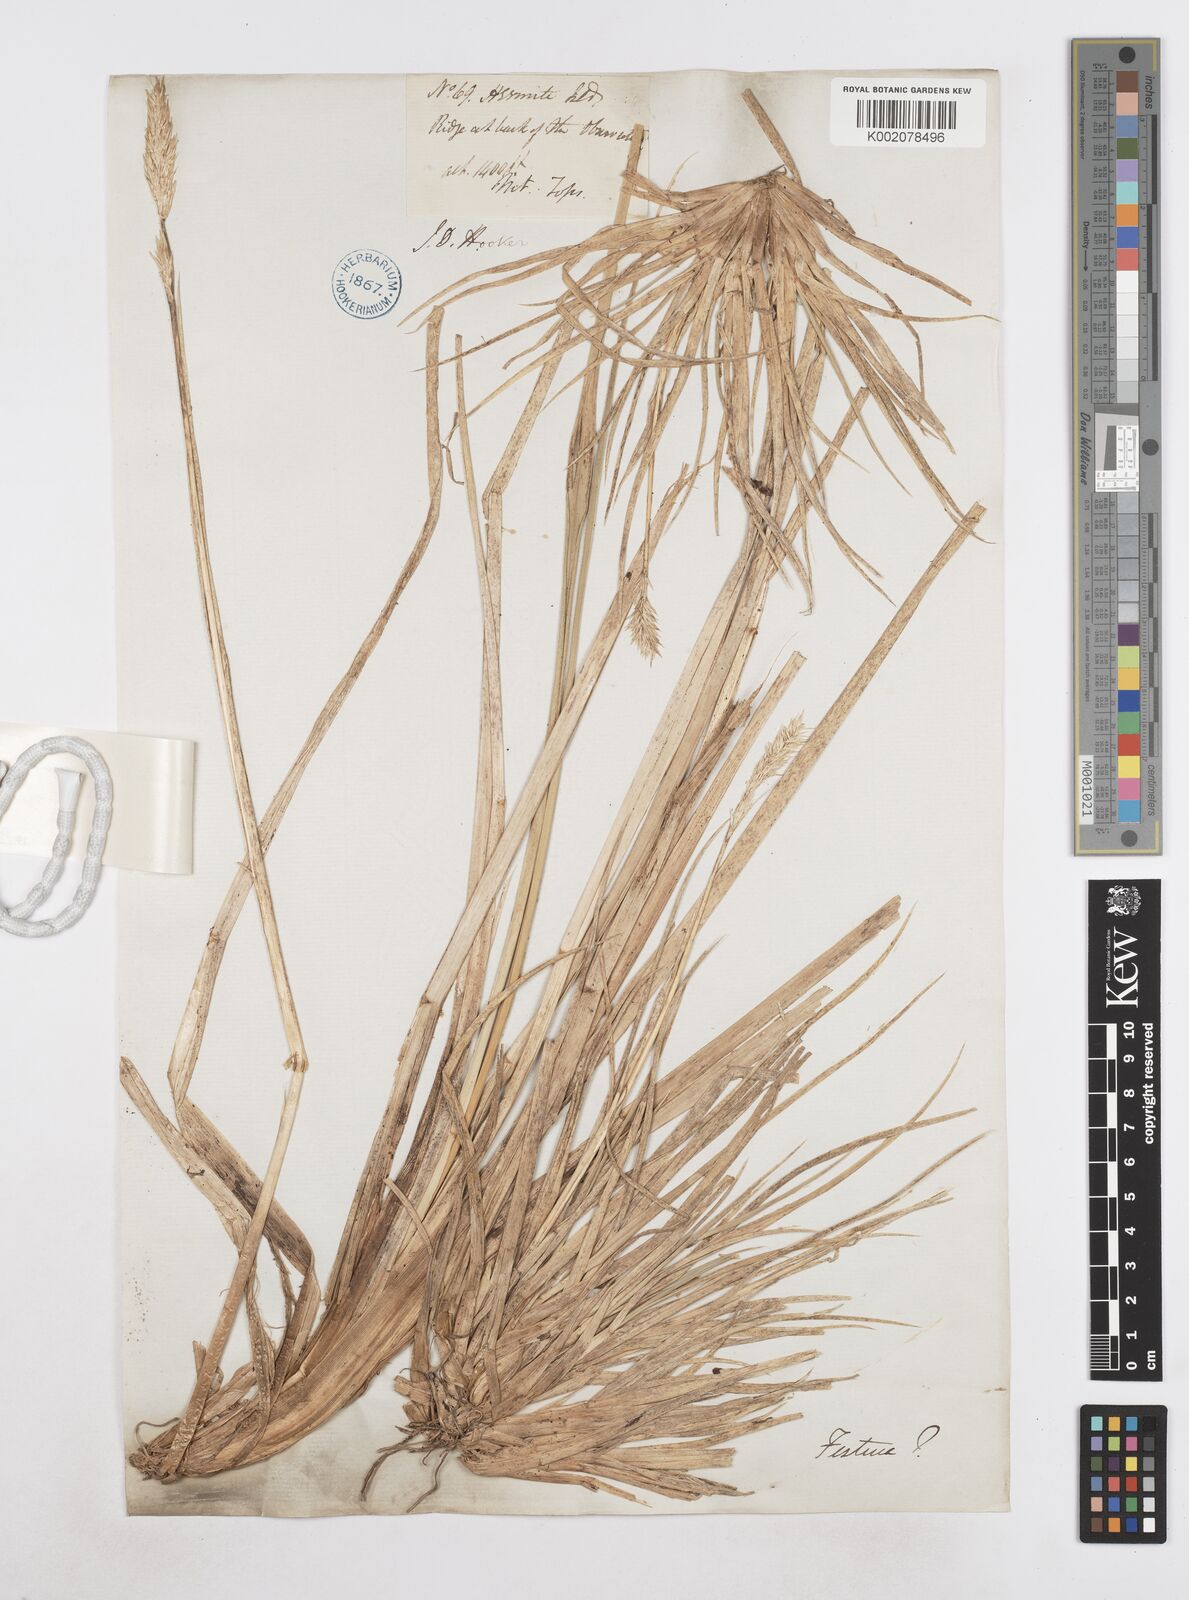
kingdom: Plantae
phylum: Tracheophyta
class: Liliopsida
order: Poales
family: Poaceae
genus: Poa
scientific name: Poa flabellata
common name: Tussac-grass
